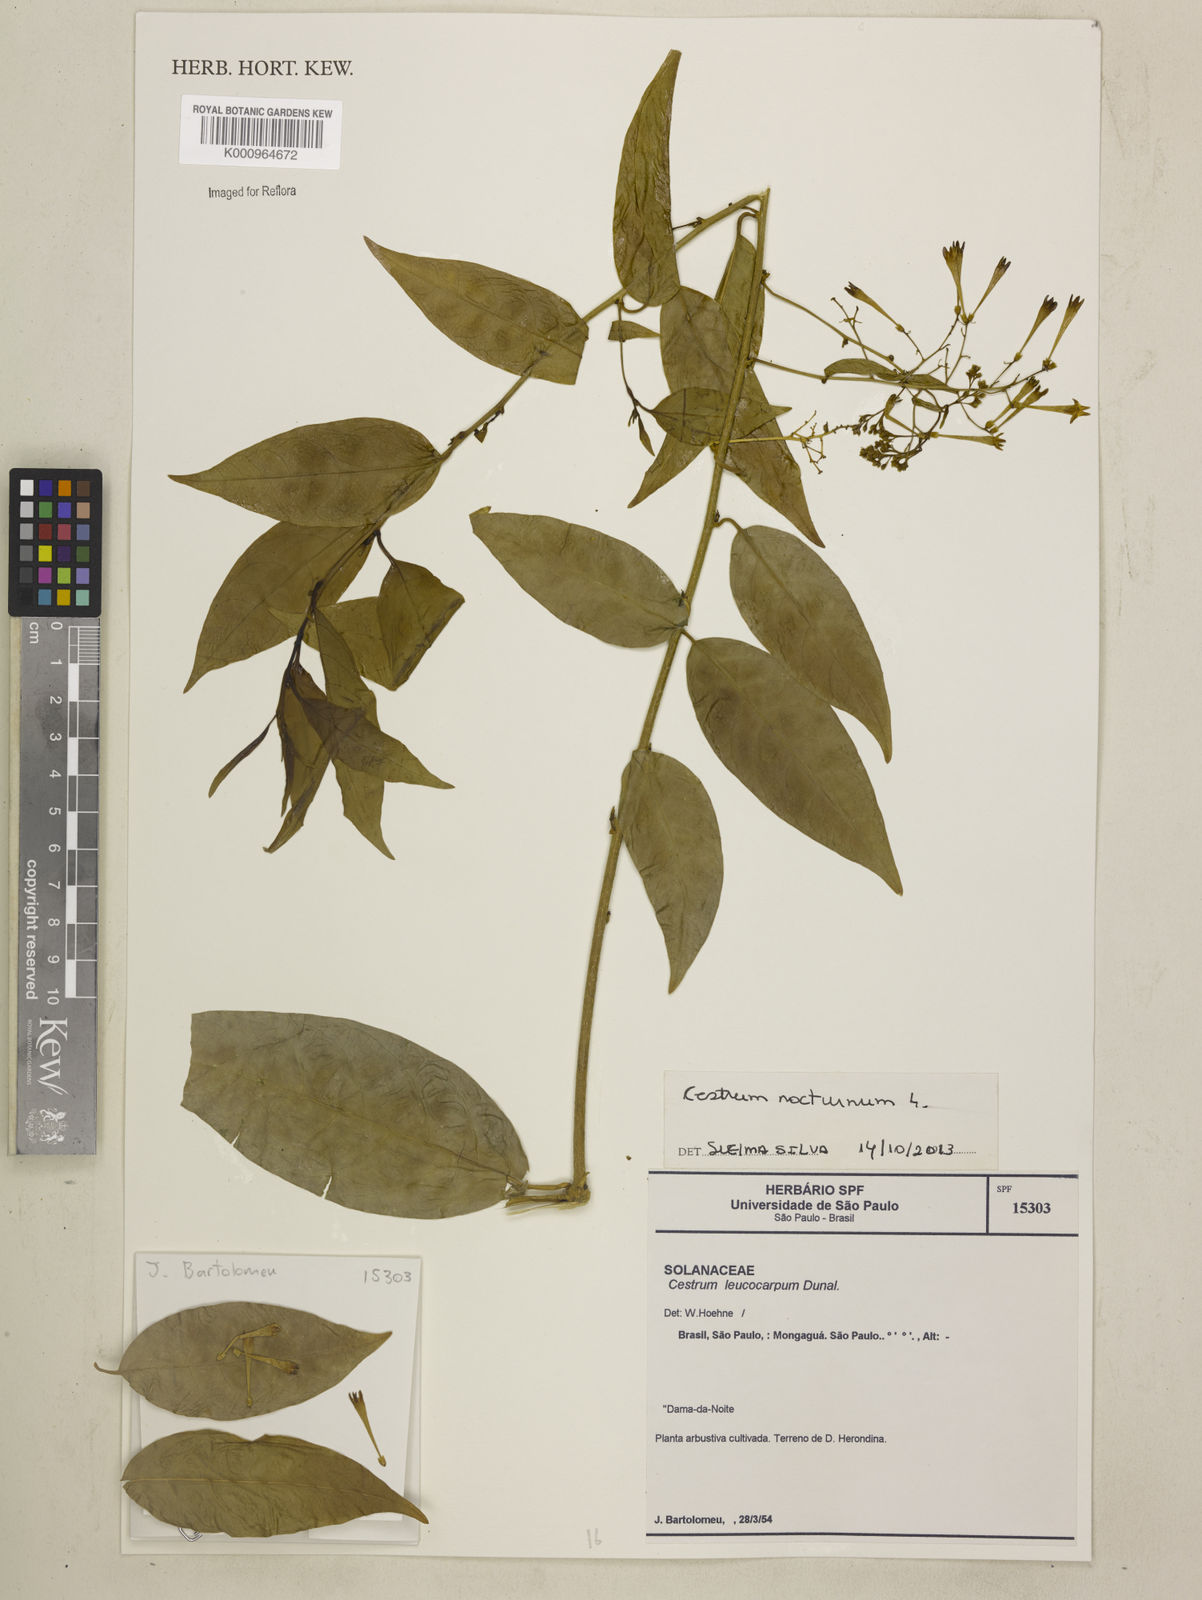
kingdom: Plantae
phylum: Tracheophyta
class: Magnoliopsida
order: Solanales
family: Solanaceae
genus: Cestrum
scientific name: Cestrum nocturnum
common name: Night jessamine
